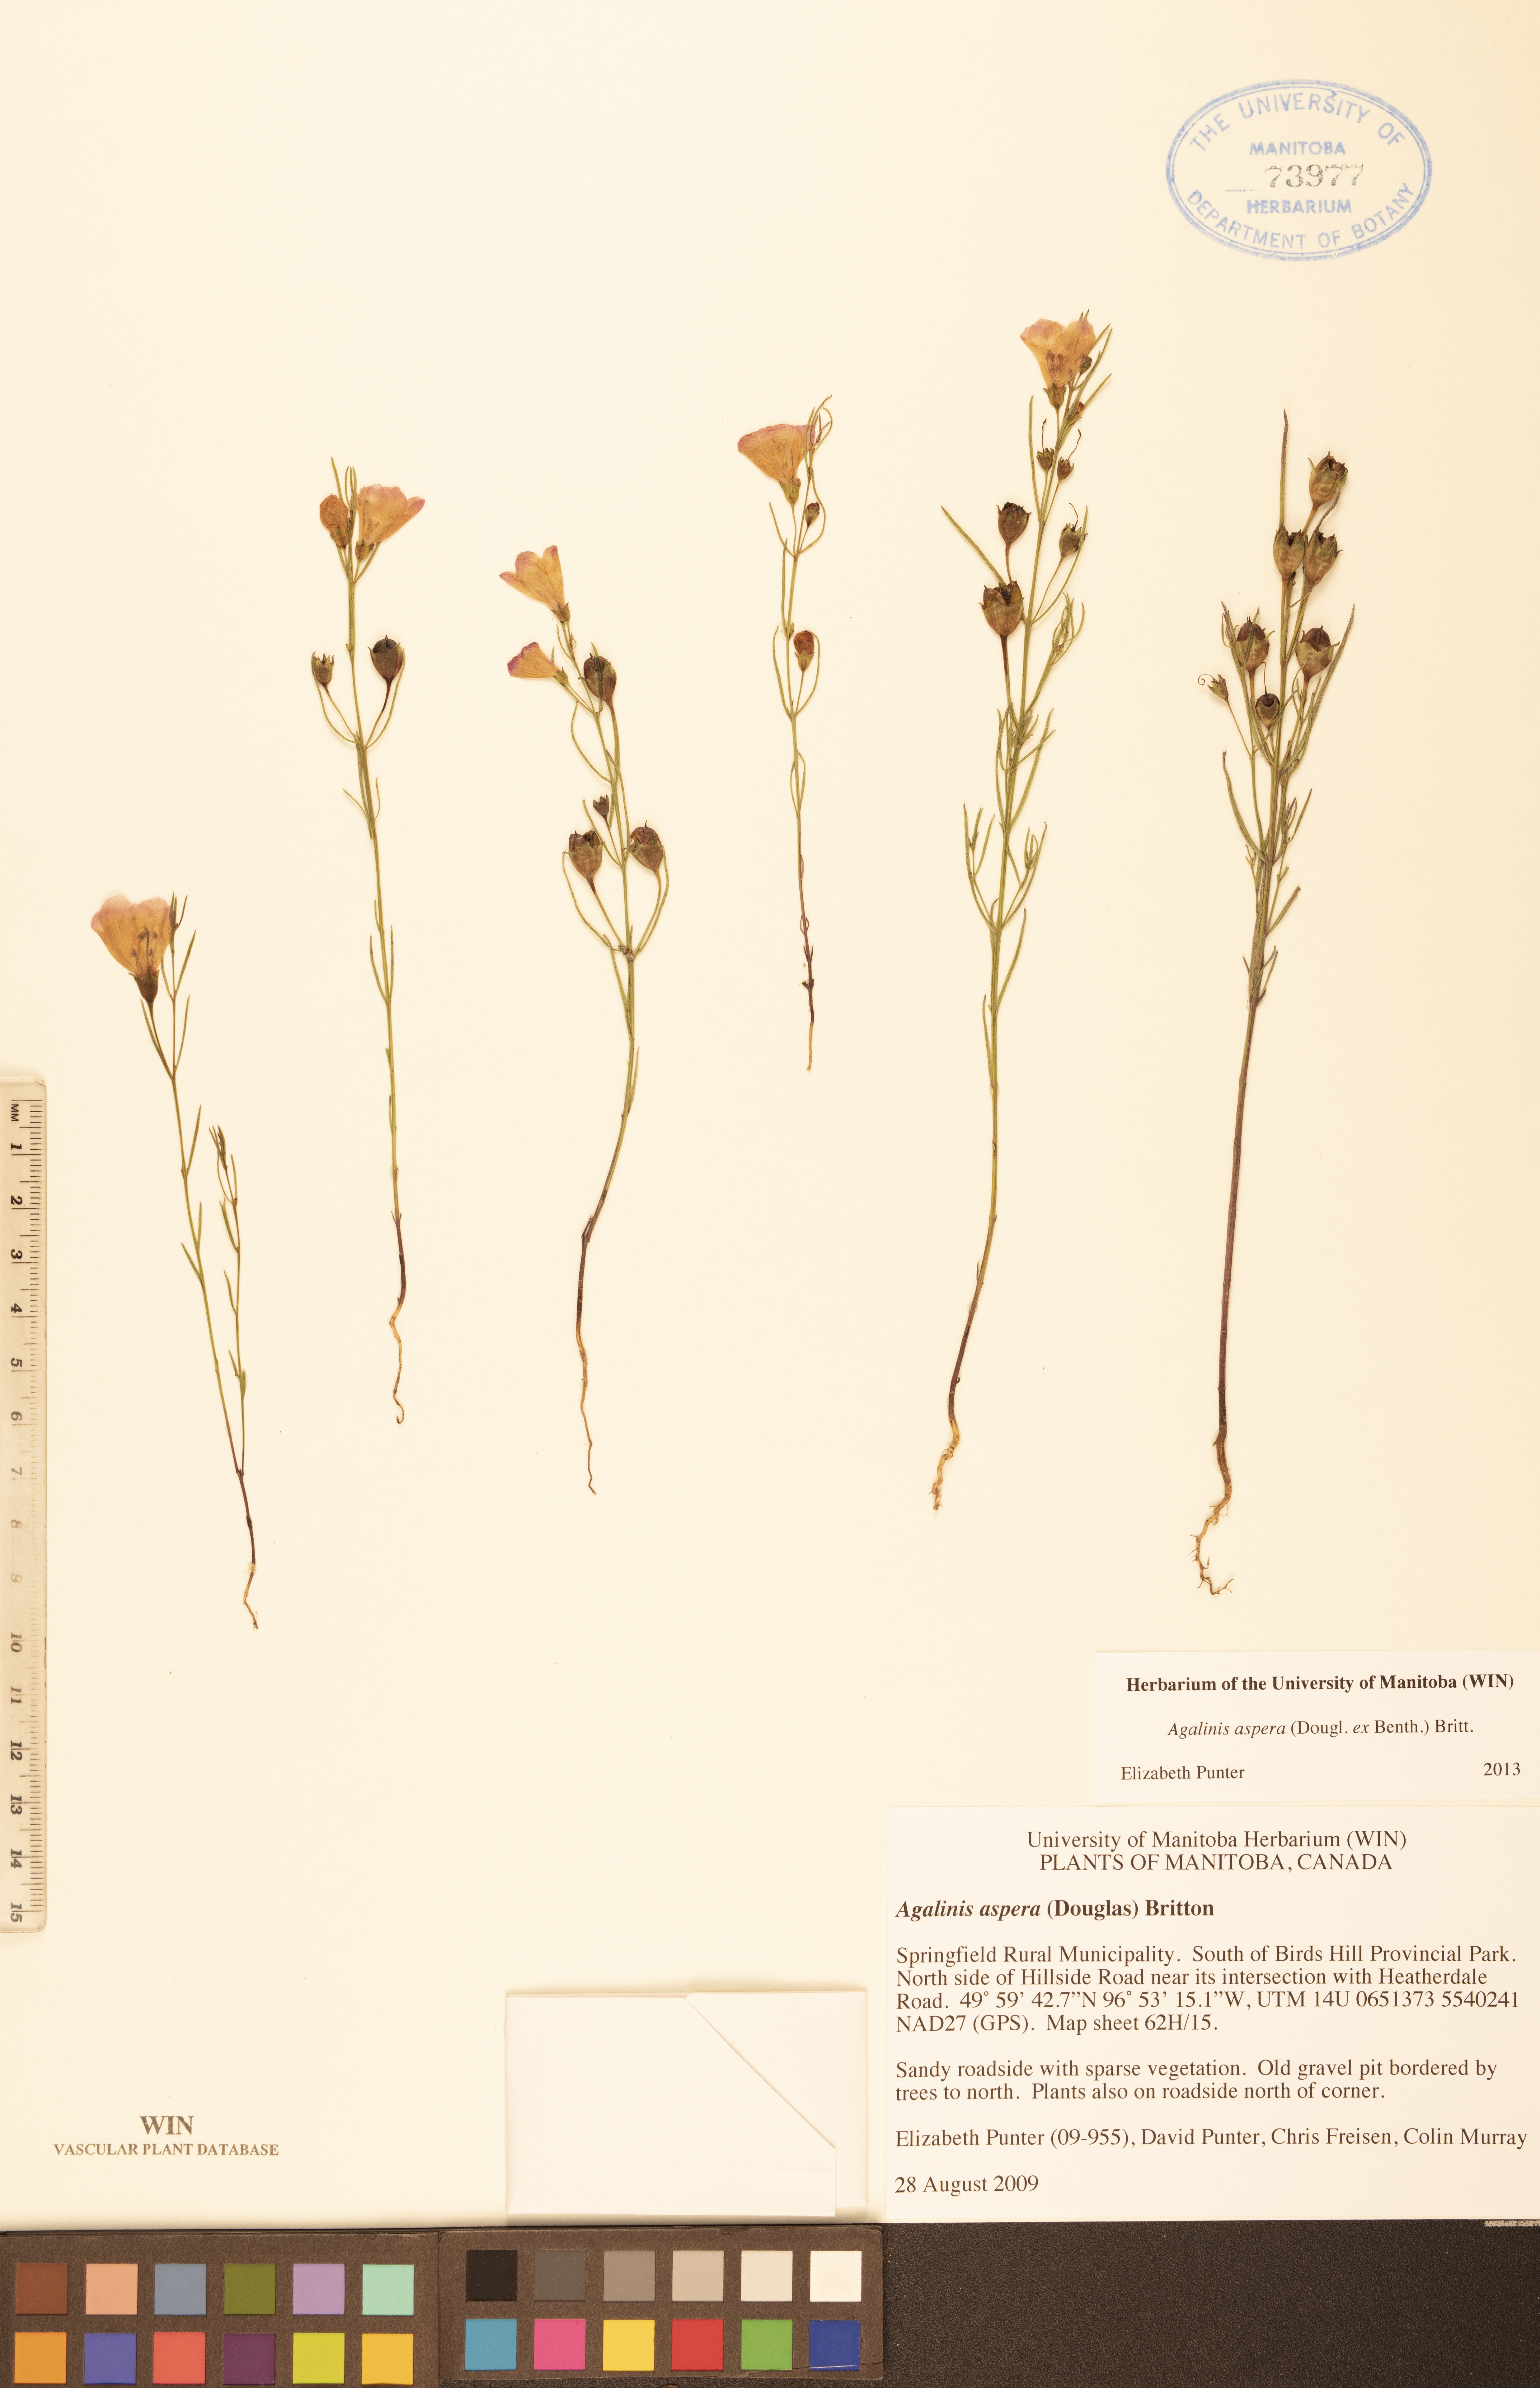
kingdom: Plantae
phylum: Tracheophyta
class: Magnoliopsida
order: Lamiales
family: Orobanchaceae
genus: Agalinis
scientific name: Agalinis aspera
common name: Rough agalinis
